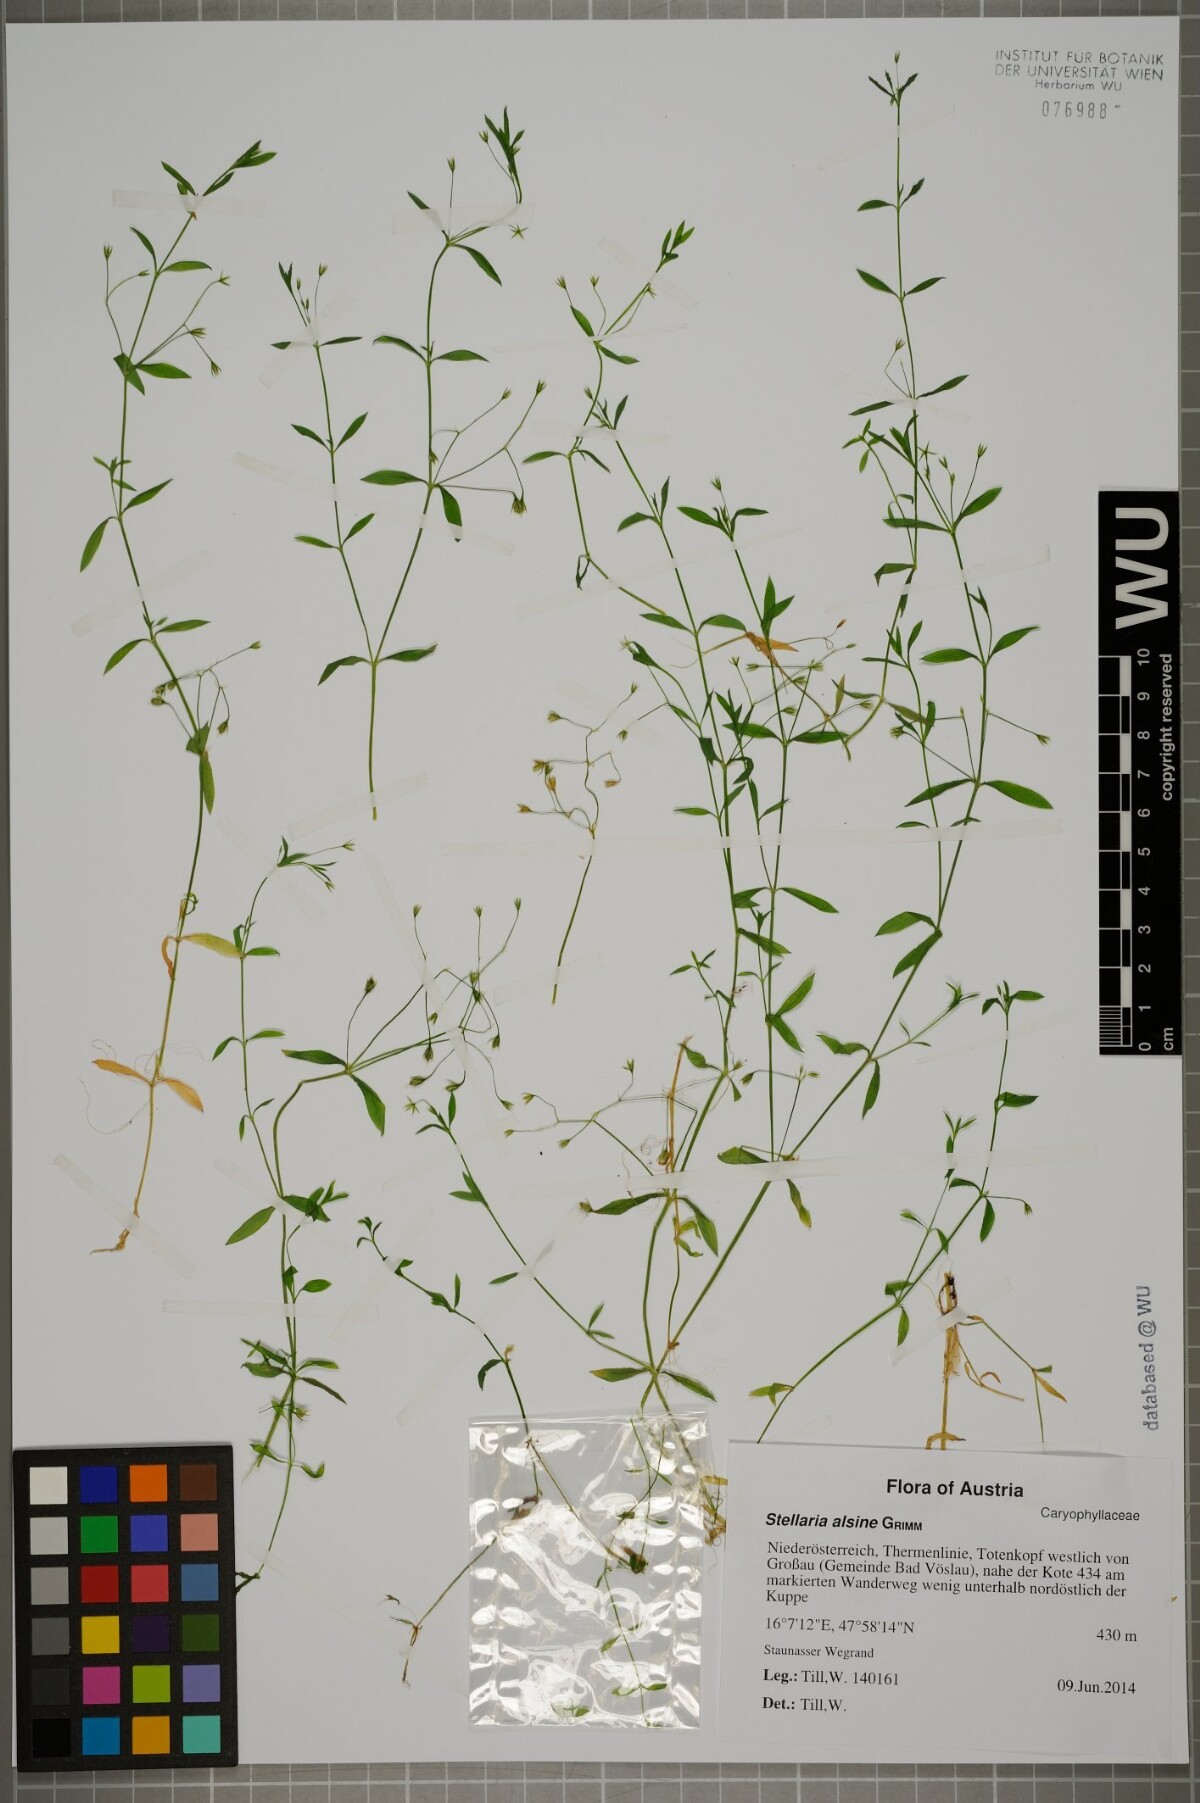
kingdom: Plantae
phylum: Tracheophyta
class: Magnoliopsida
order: Caryophyllales
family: Caryophyllaceae
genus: Stellaria
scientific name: Stellaria alsine
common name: Bog stitchwort
